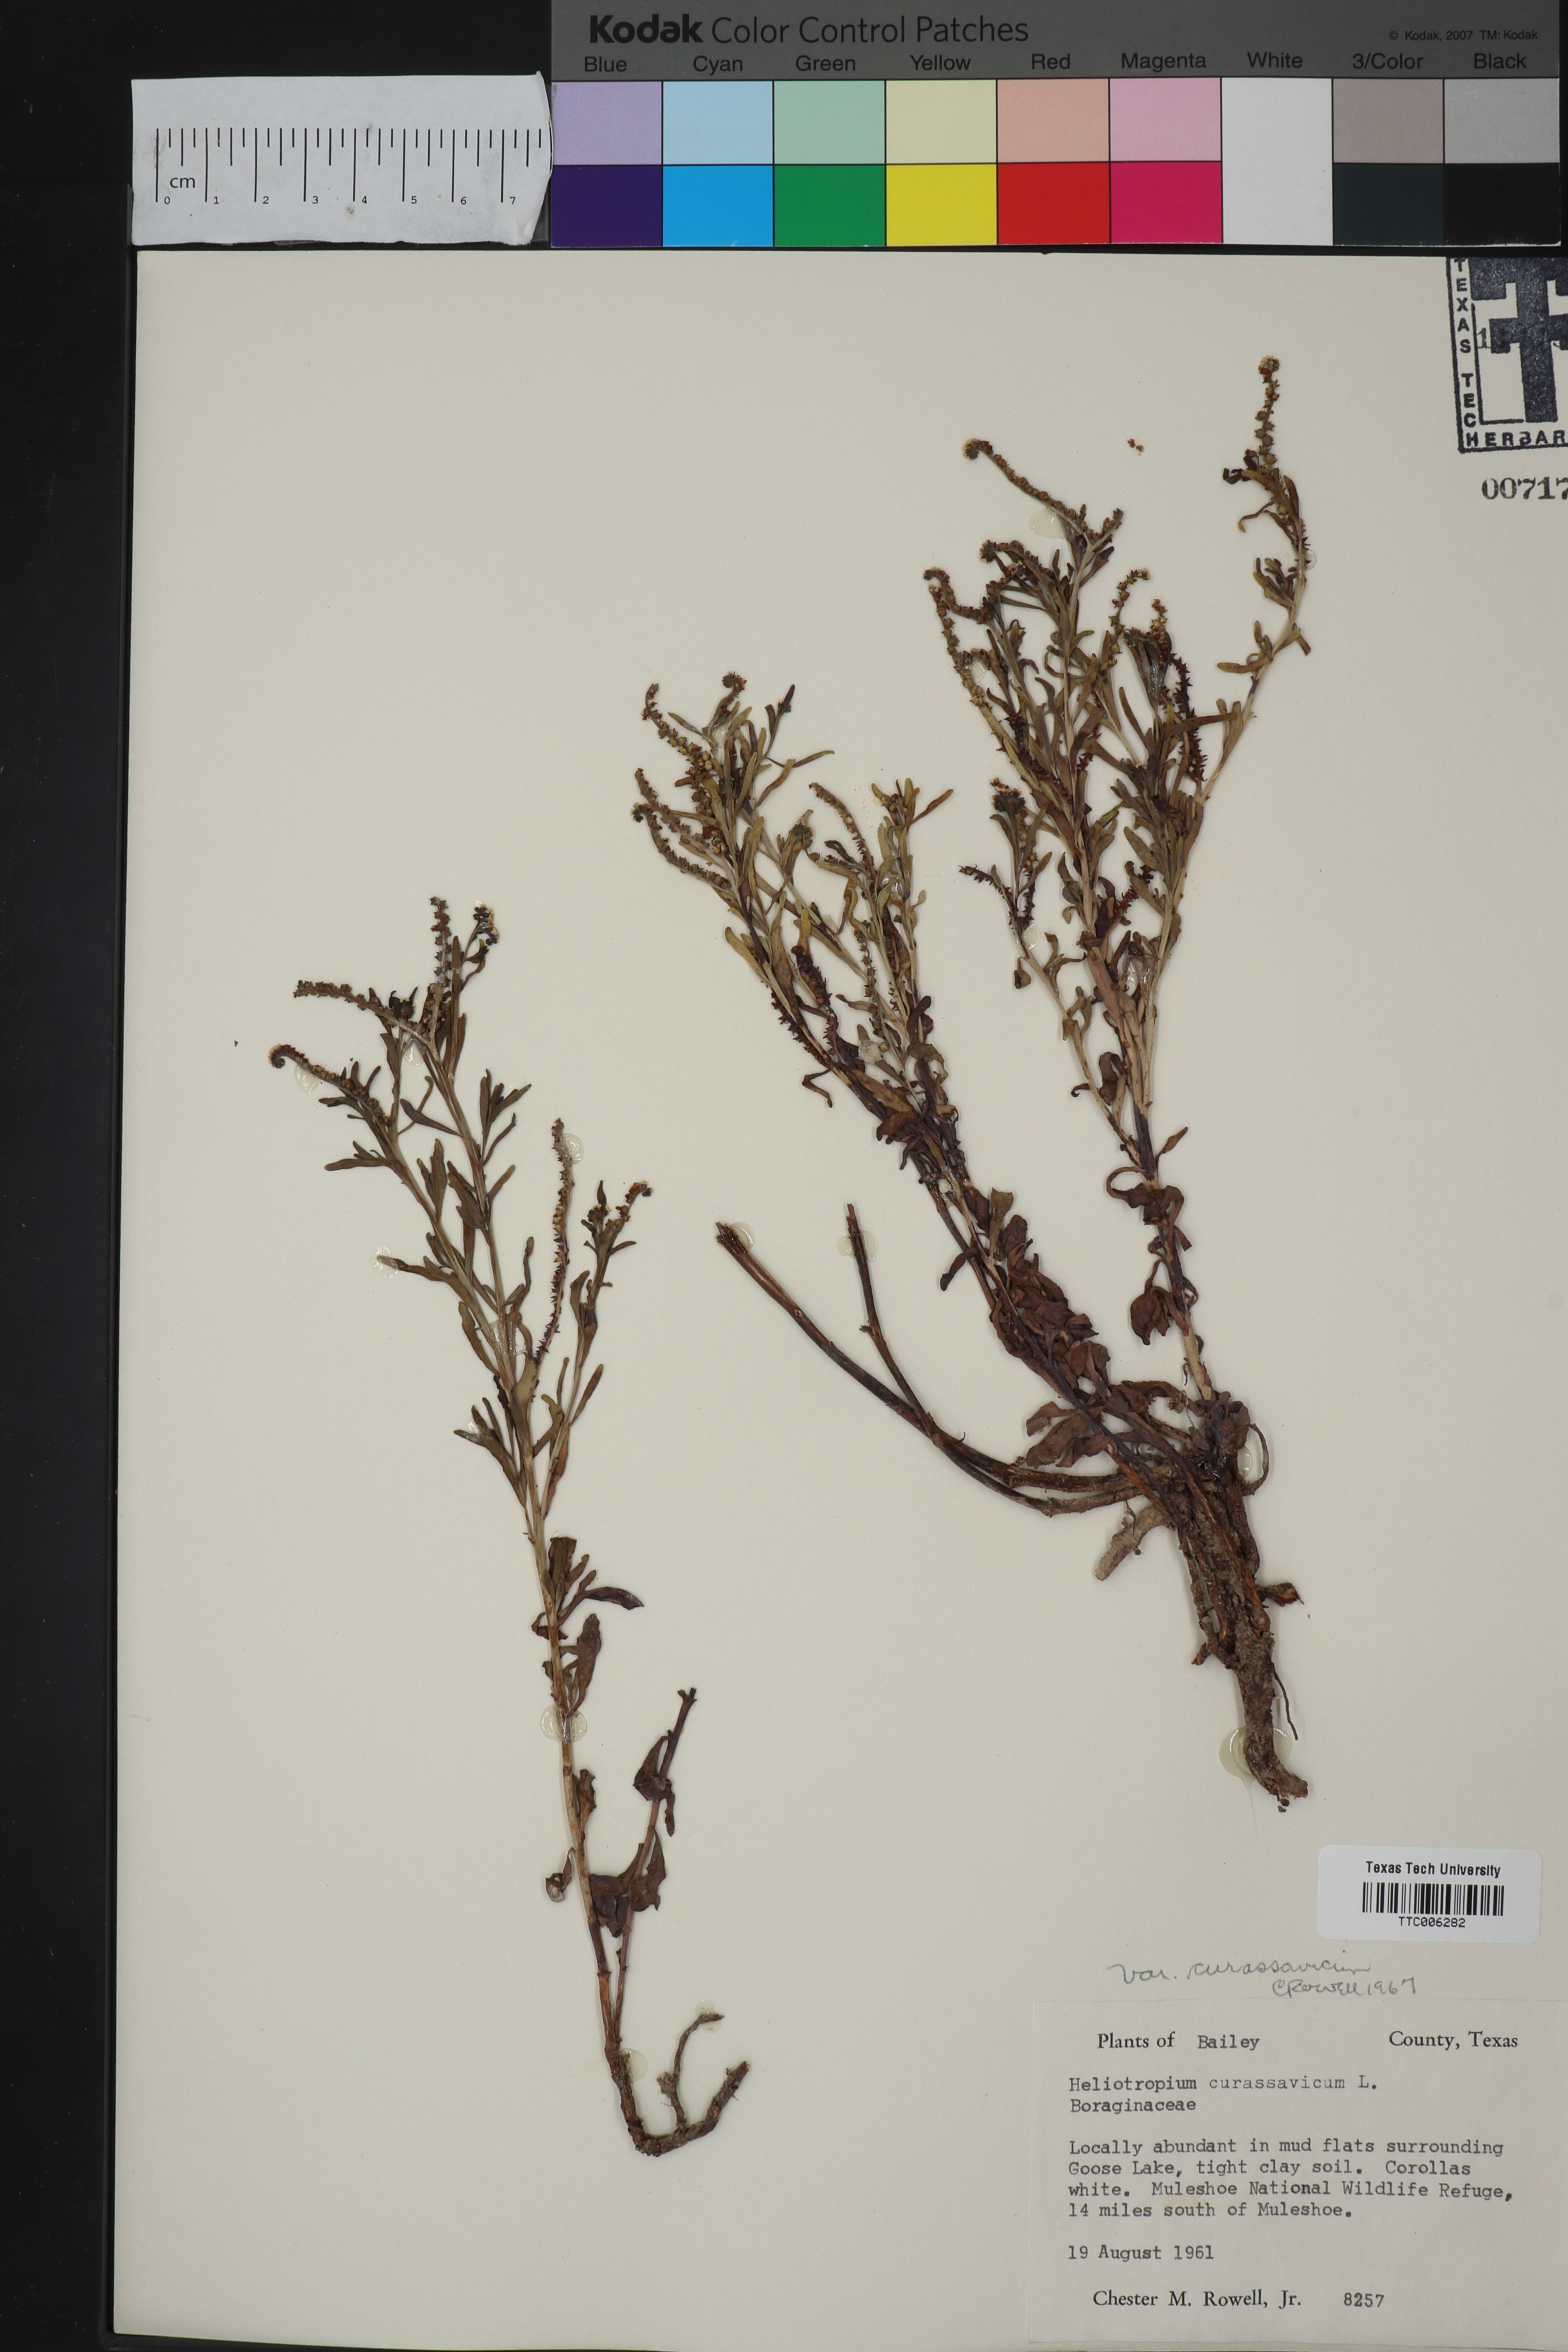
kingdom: Plantae
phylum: Tracheophyta
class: Magnoliopsida
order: Boraginales
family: Heliotropiaceae
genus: Heliotropium
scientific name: Heliotropium curassavicum
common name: Seaside heliotrope
